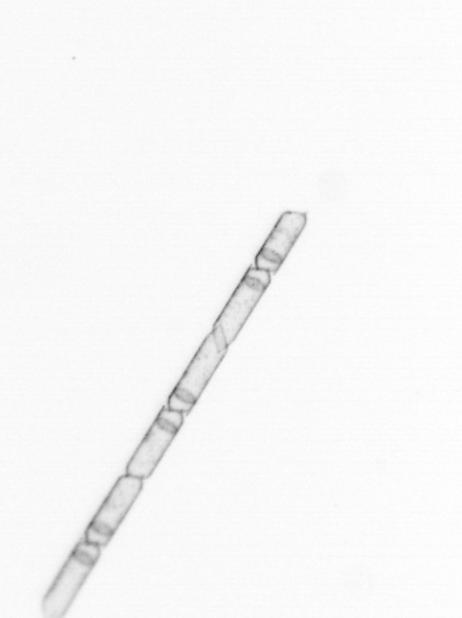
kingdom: Chromista
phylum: Ochrophyta
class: Bacillariophyceae
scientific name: Bacillariophyceae
